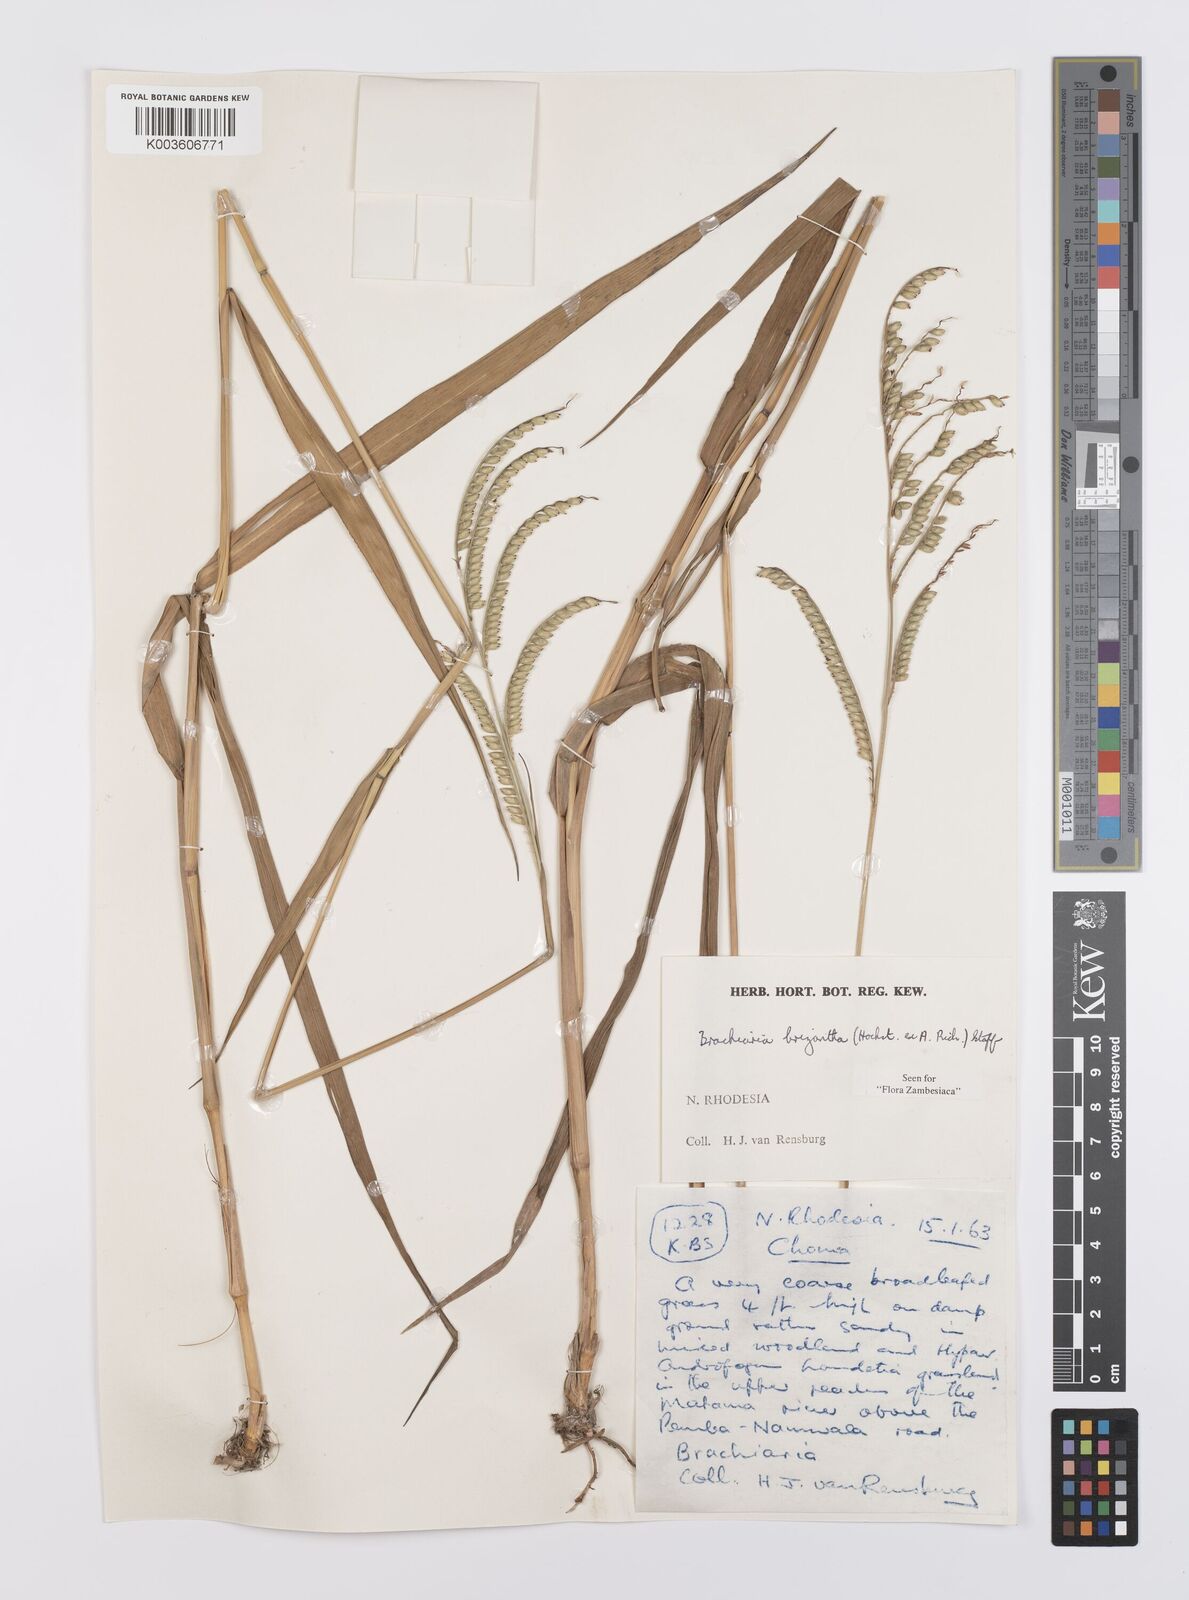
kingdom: Plantae
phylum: Tracheophyta
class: Liliopsida
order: Poales
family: Poaceae
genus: Urochloa
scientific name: Urochloa brizantha
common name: Palisade signalgrass
